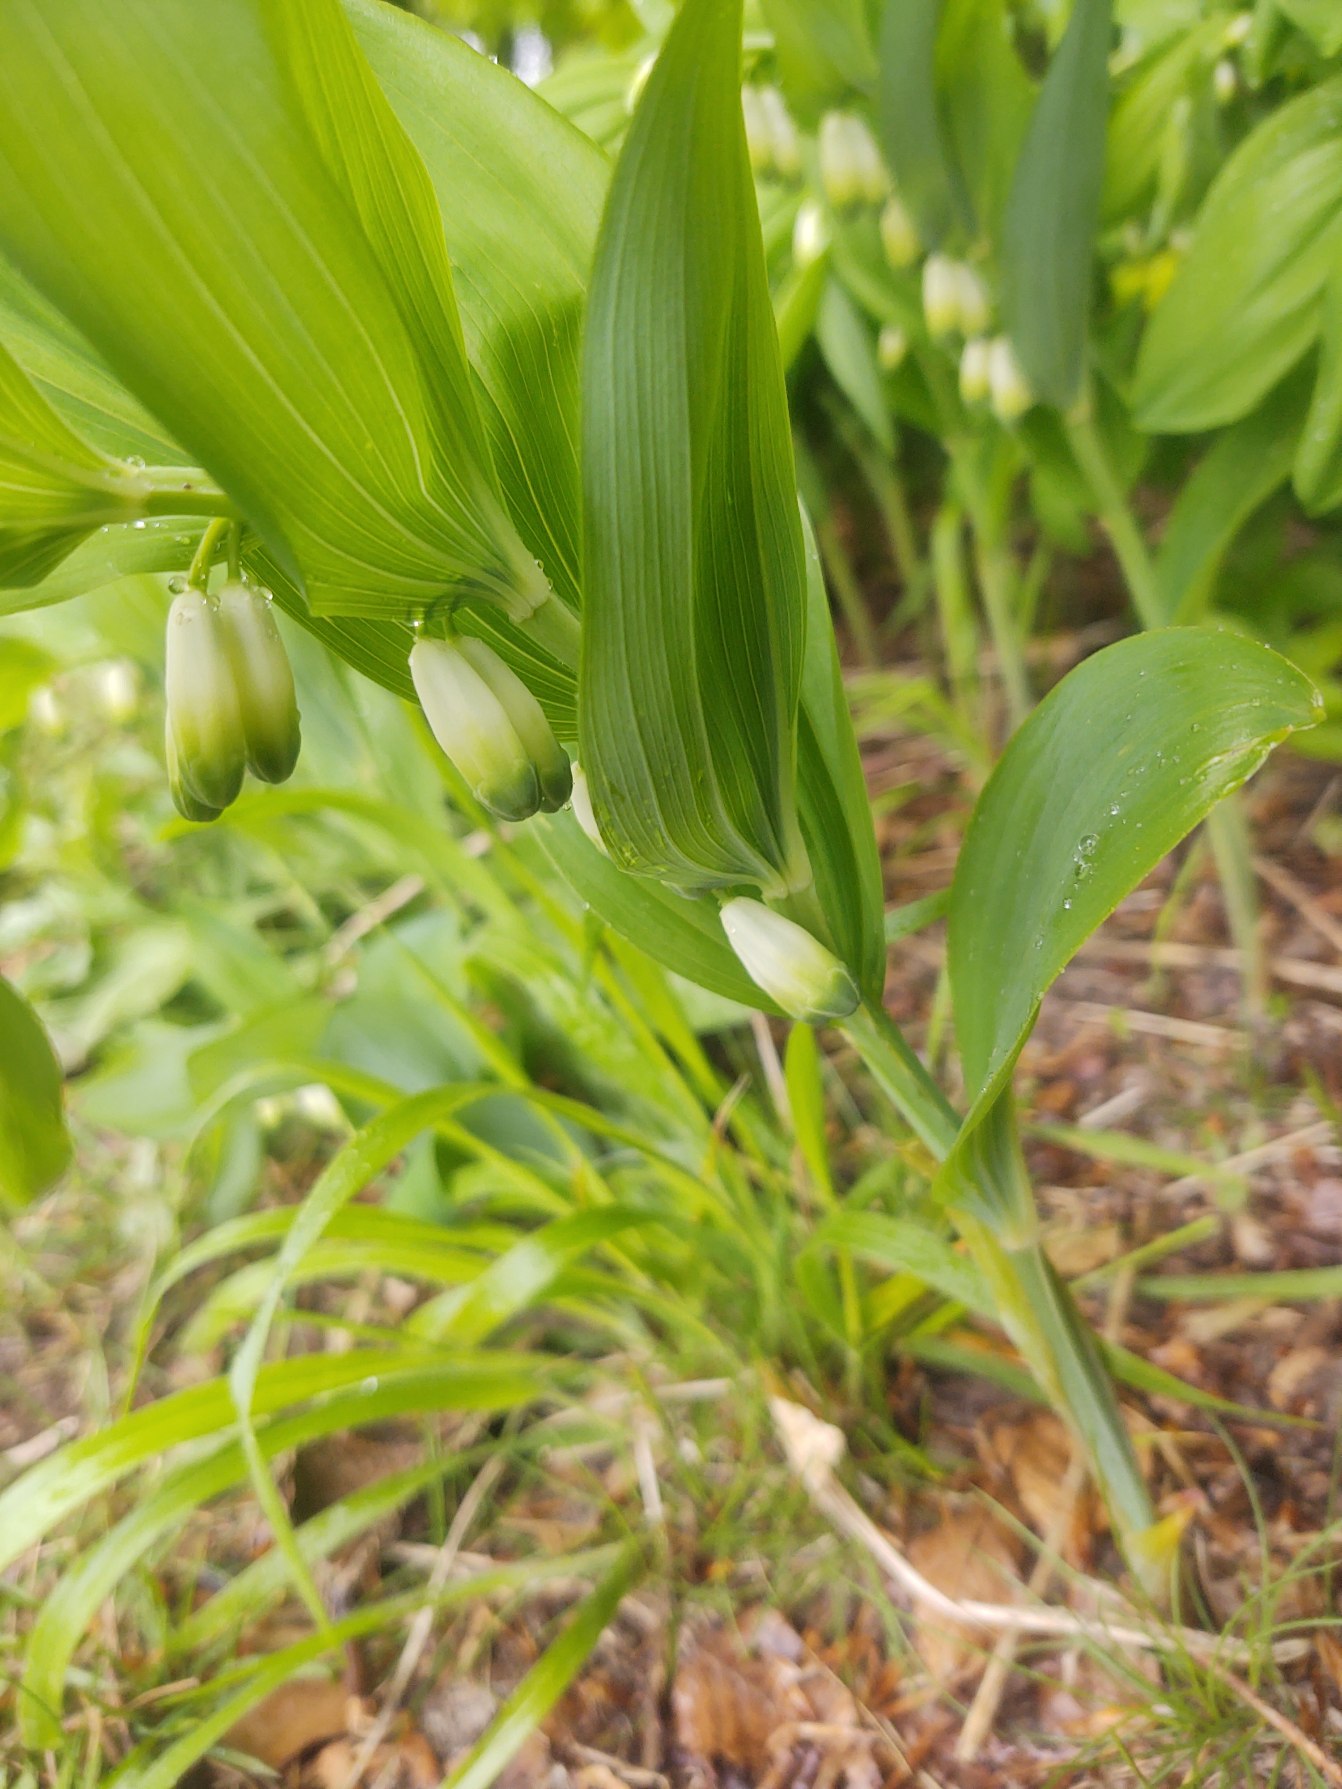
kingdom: Plantae
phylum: Tracheophyta
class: Liliopsida
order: Asparagales
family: Asparagaceae
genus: Polygonatum
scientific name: Polygonatum odoratum
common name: Kantet konval
